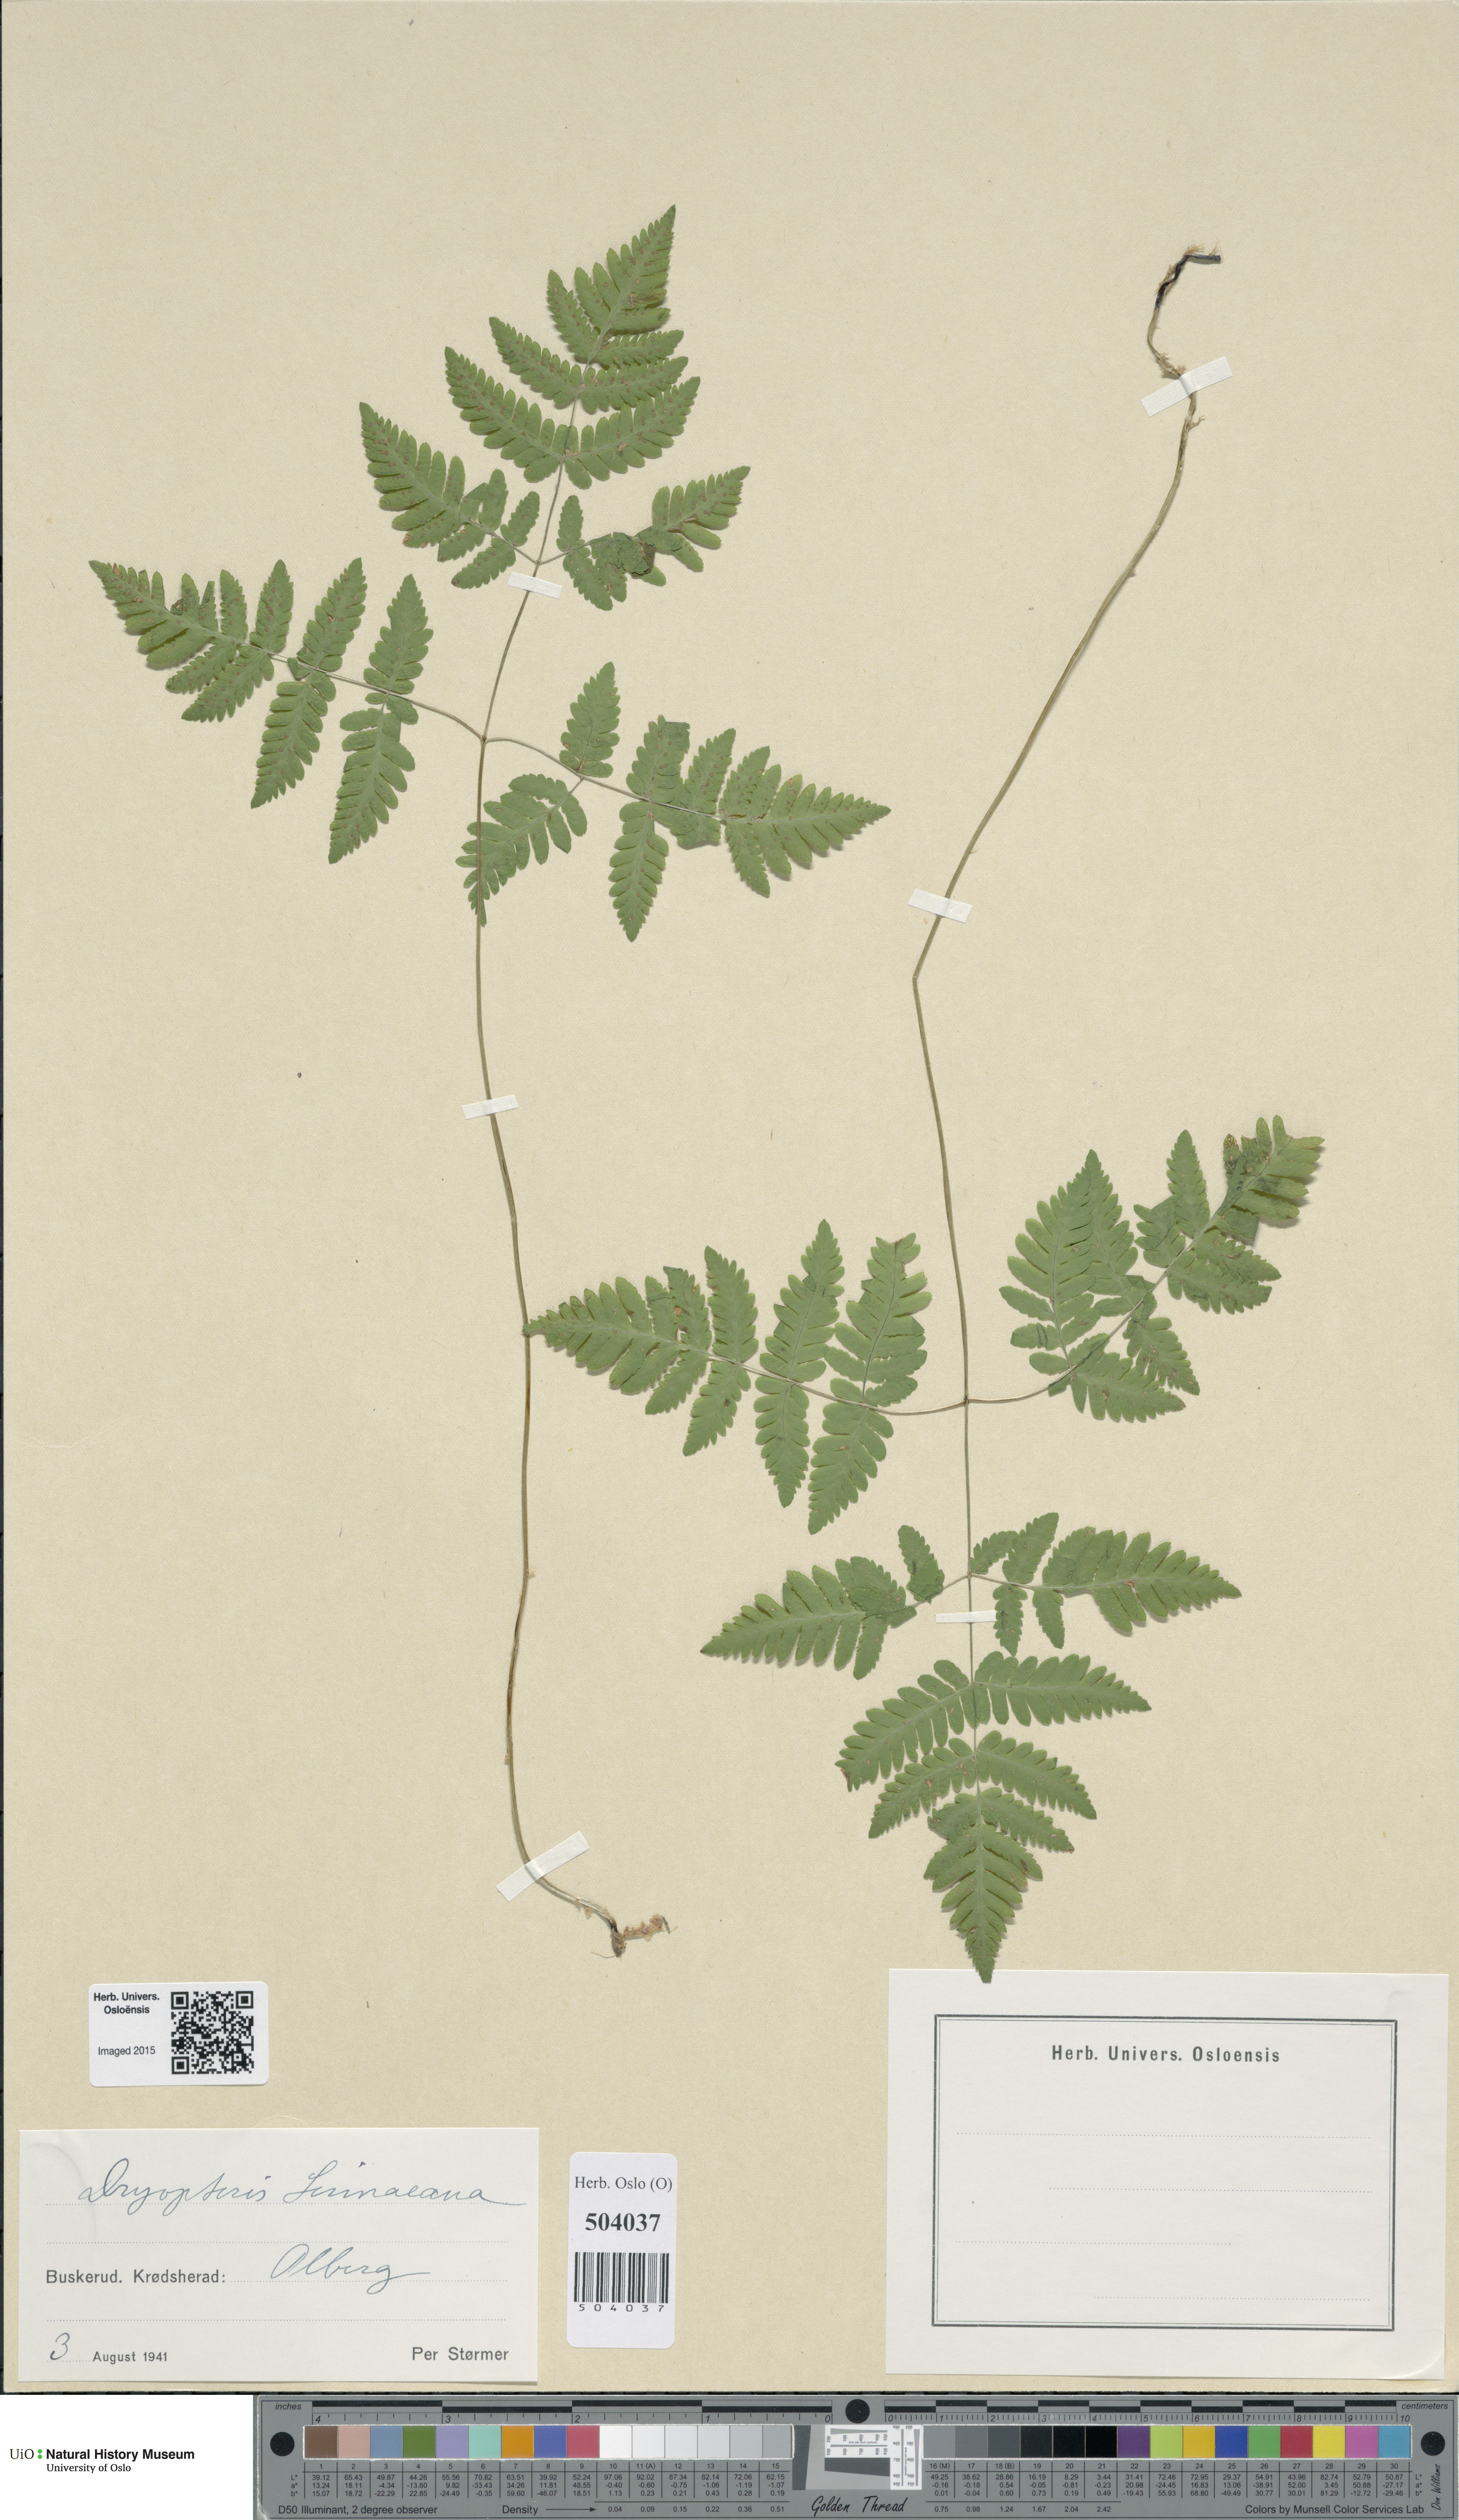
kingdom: Plantae
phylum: Tracheophyta
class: Polypodiopsida
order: Polypodiales
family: Cystopteridaceae
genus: Gymnocarpium
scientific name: Gymnocarpium dryopteris
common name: Oak fern
